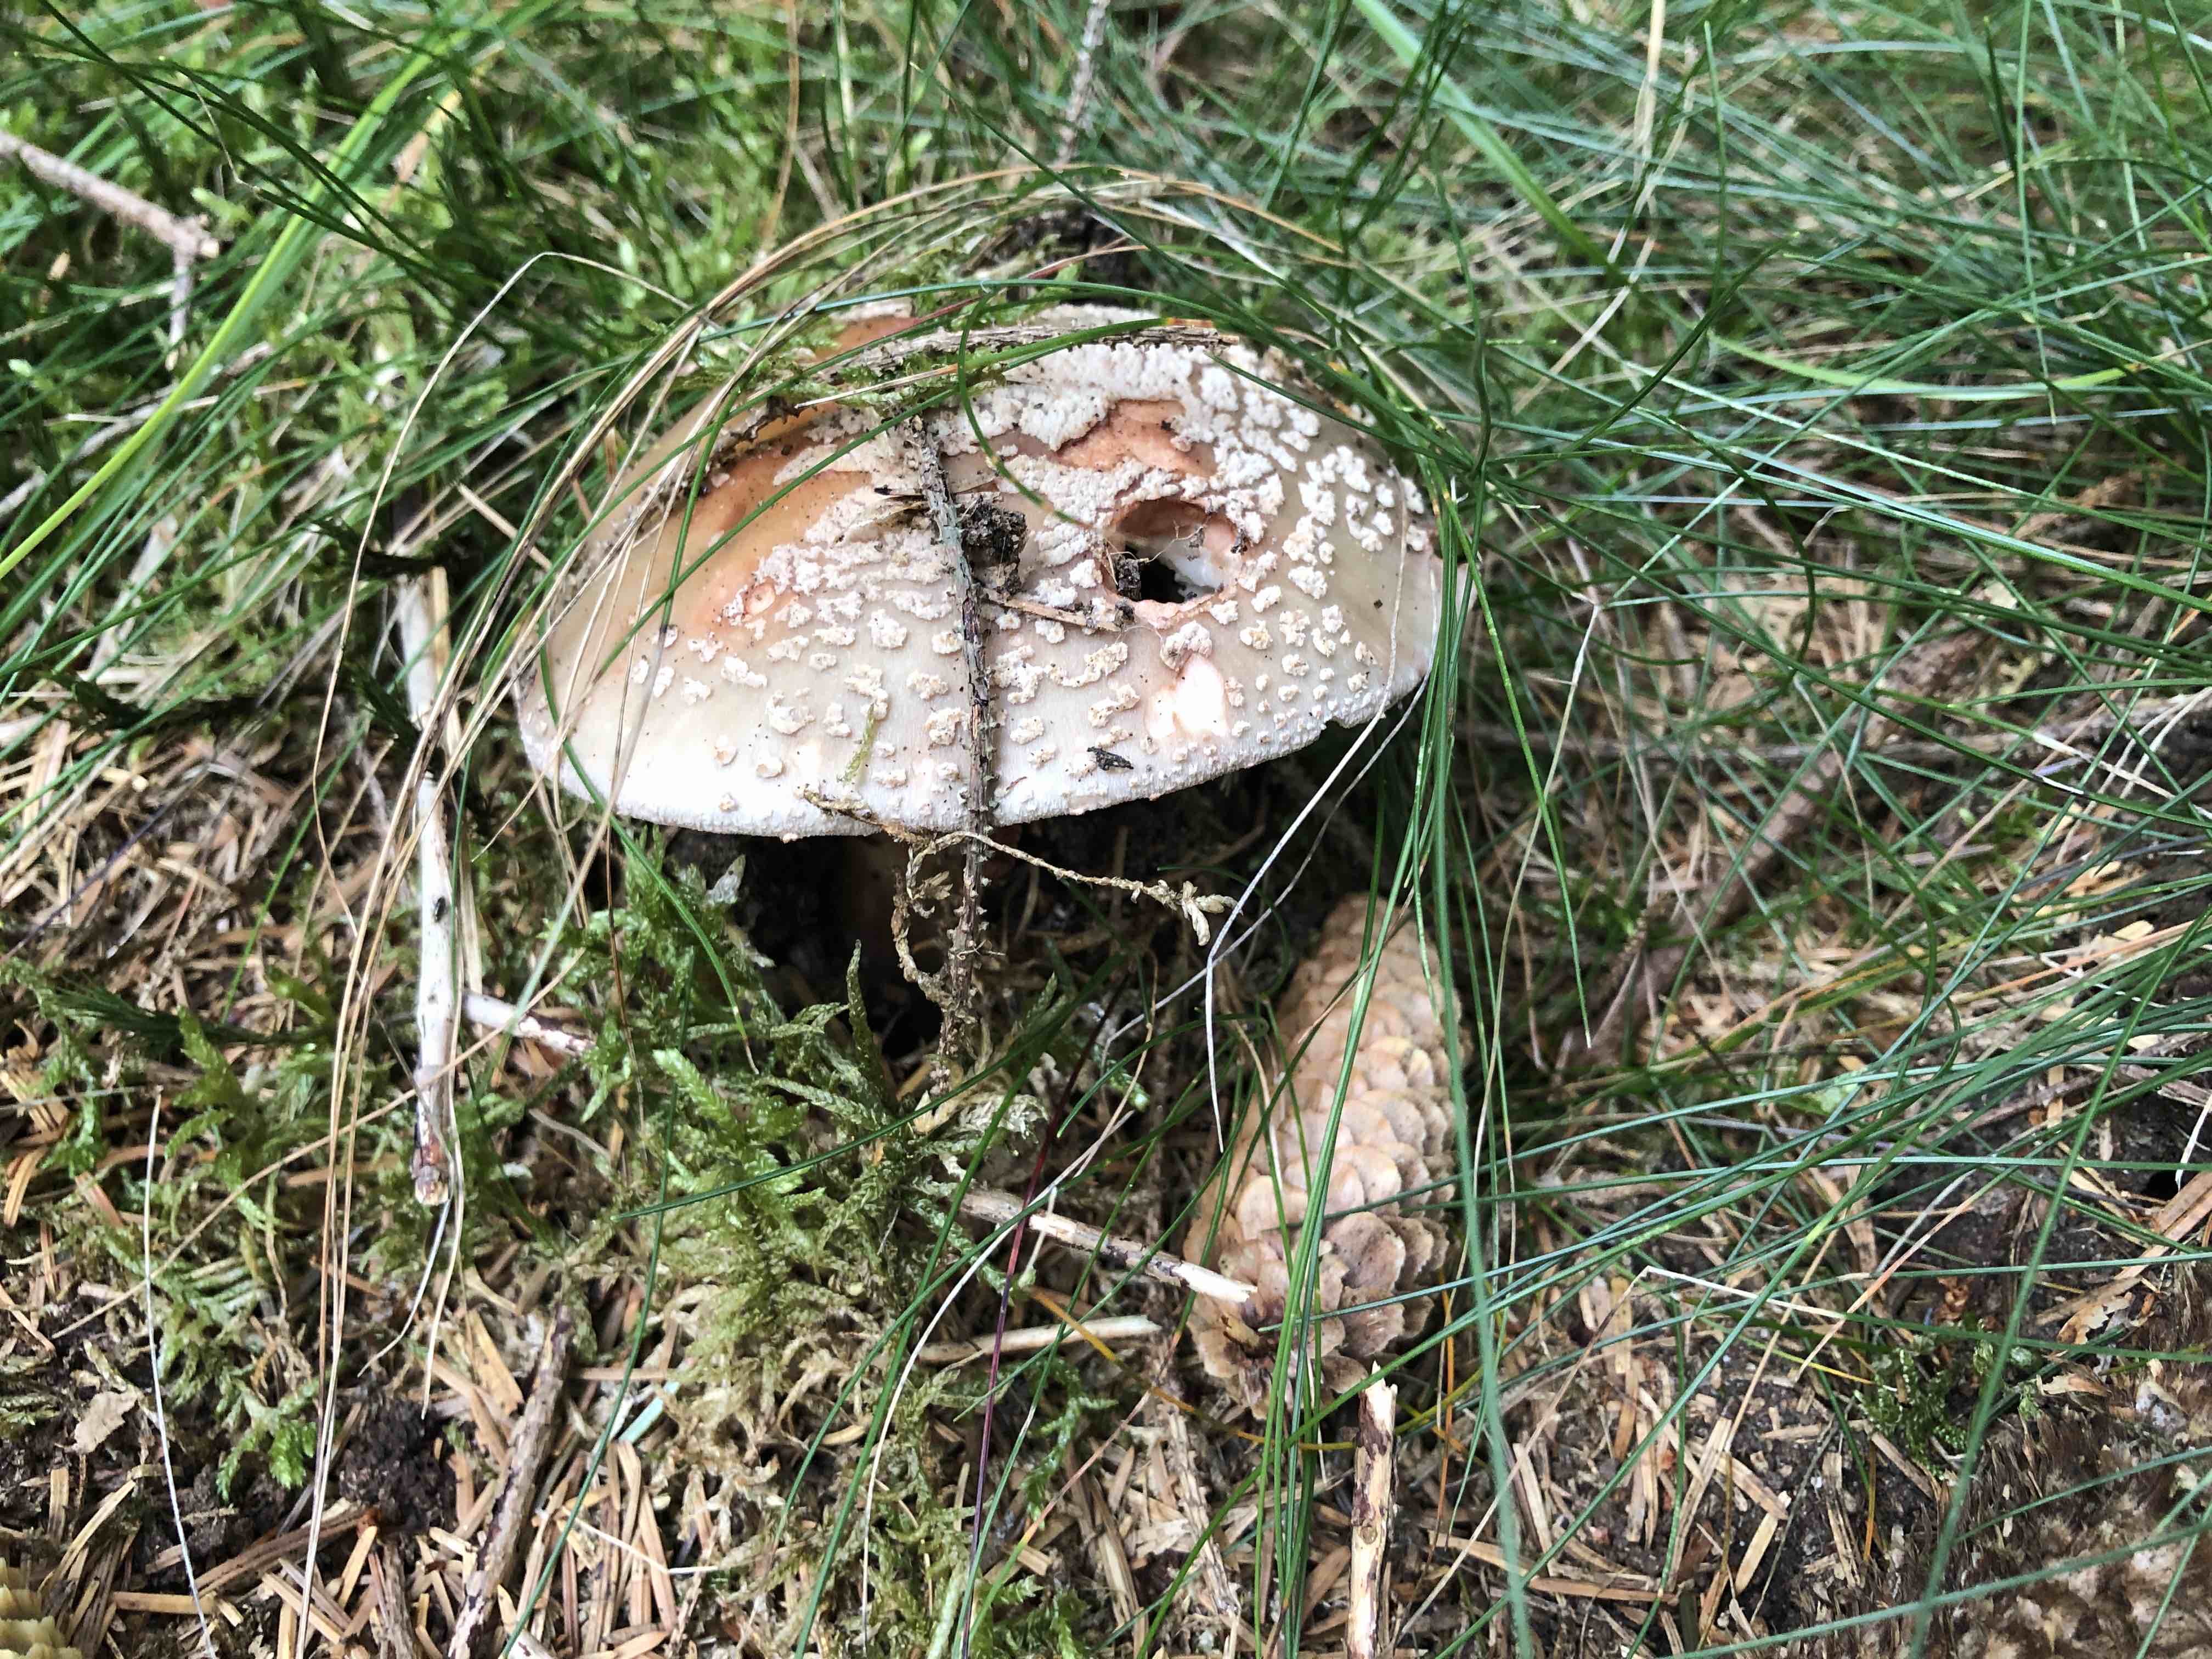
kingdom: Fungi
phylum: Basidiomycota
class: Agaricomycetes
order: Agaricales
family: Amanitaceae
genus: Amanita
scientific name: Amanita rubescens
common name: rødmende fluesvamp
